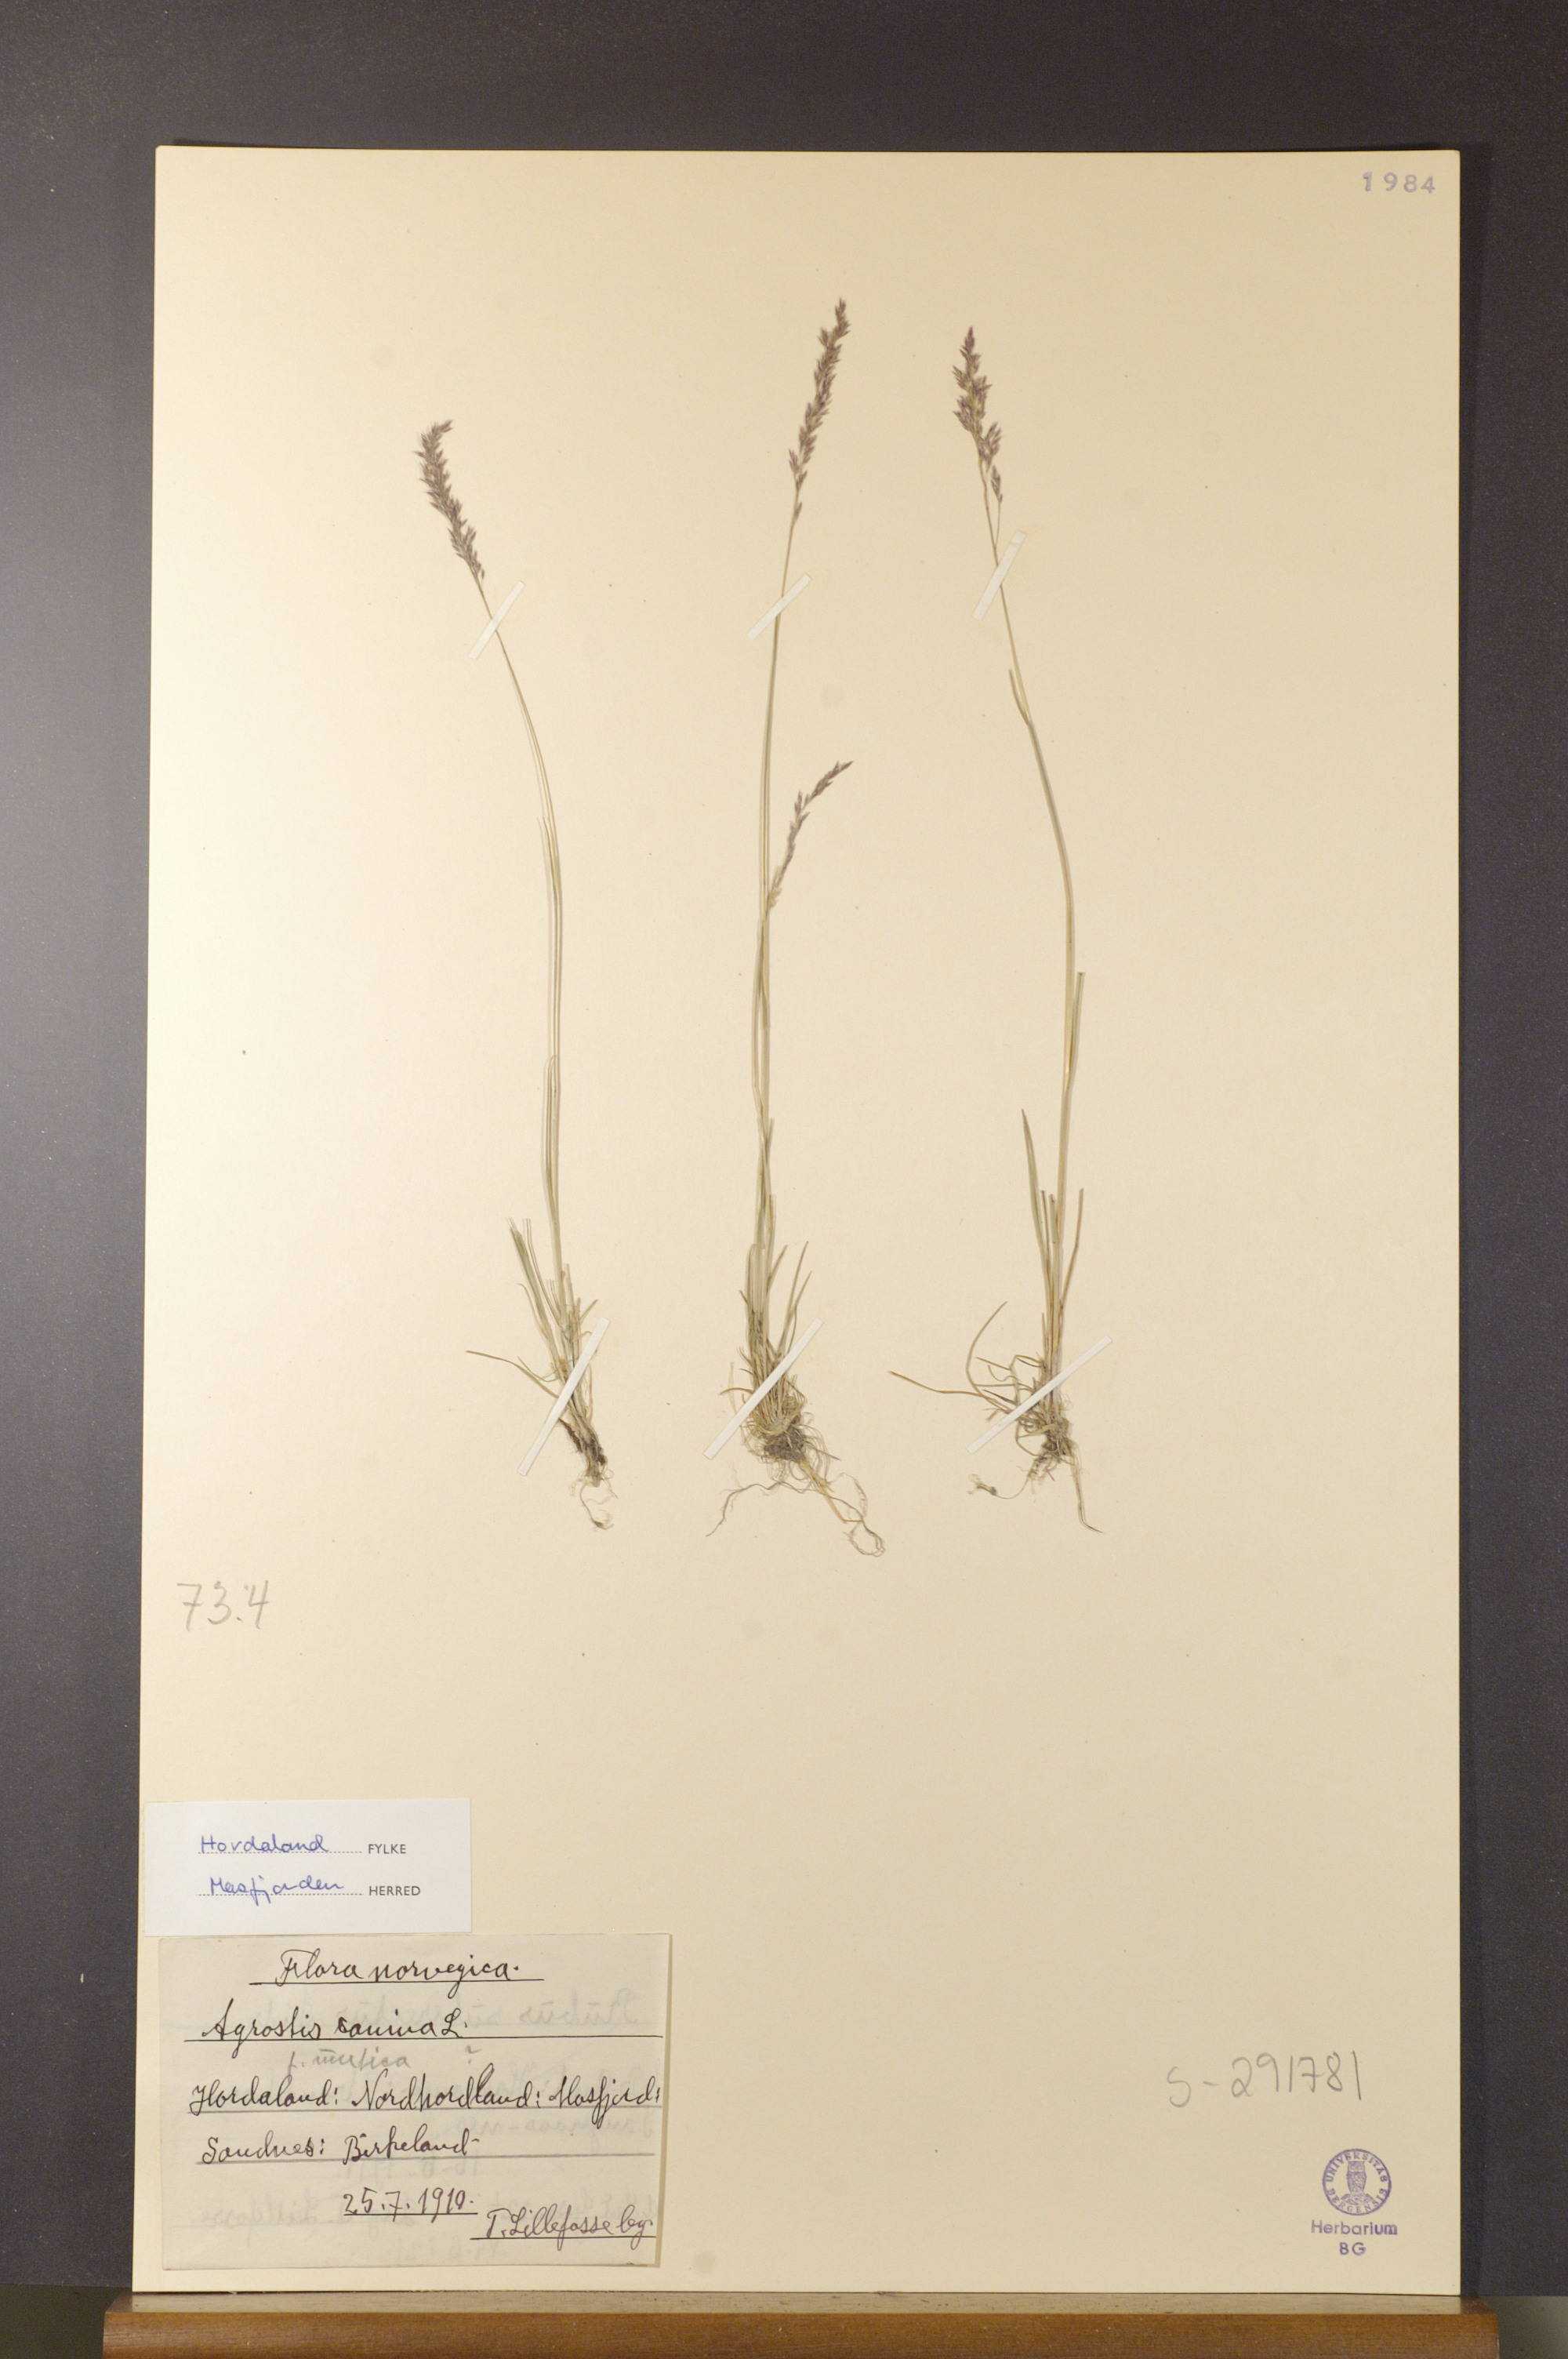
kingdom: Plantae
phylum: Tracheophyta
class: Liliopsida
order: Poales
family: Poaceae
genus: Agrostis
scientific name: Agrostis canina
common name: Velvet bent
